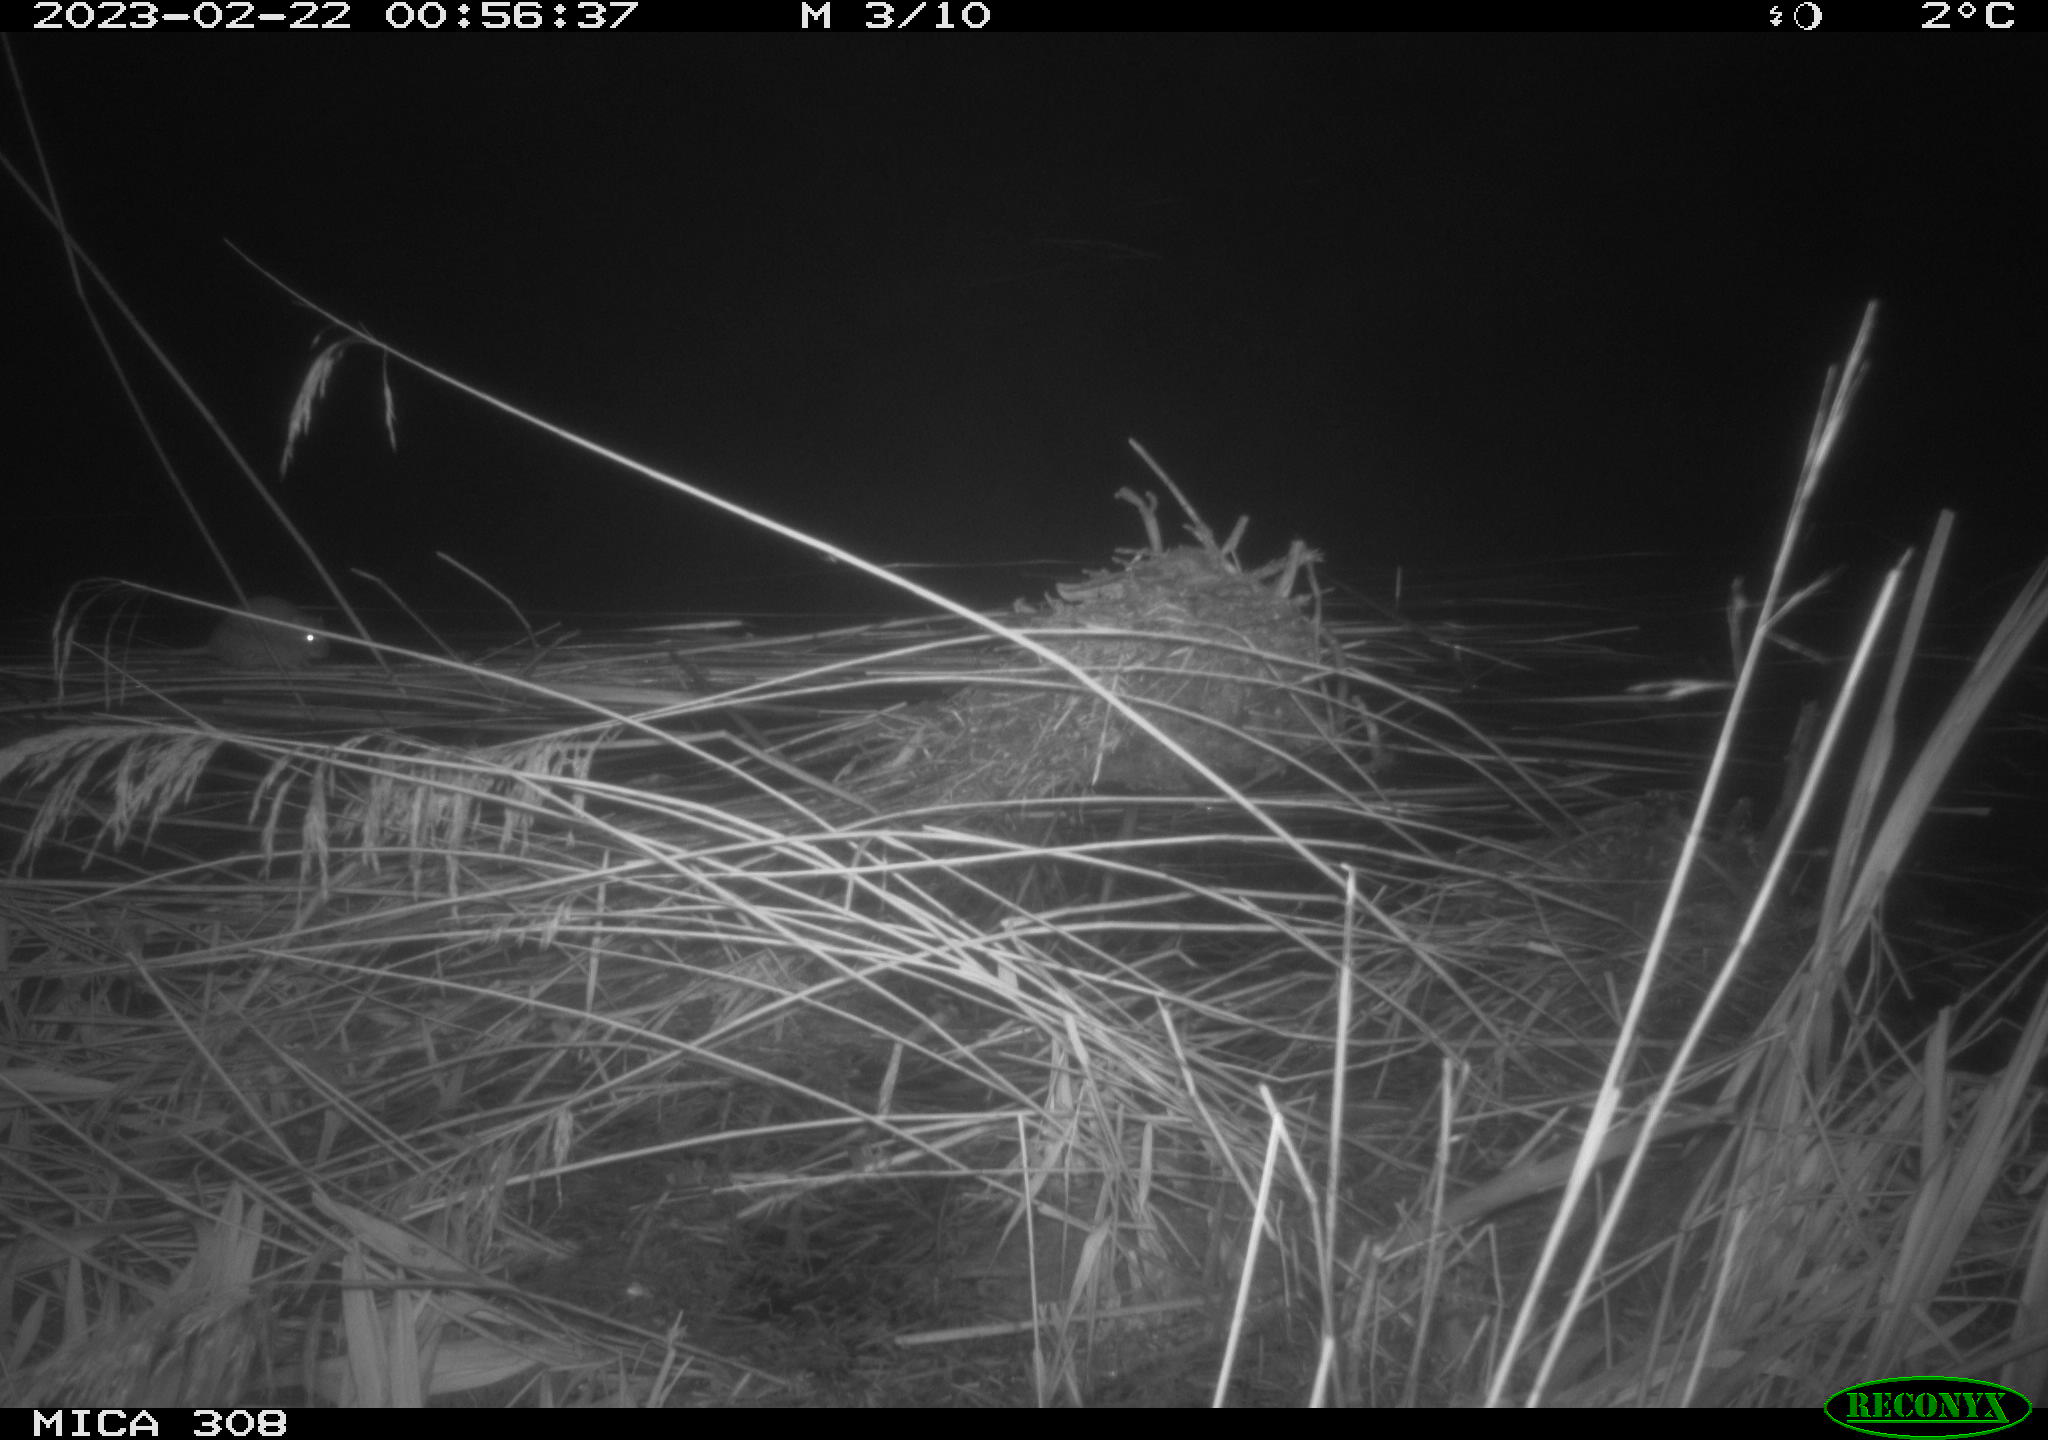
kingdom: Animalia
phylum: Chordata
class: Mammalia
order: Rodentia
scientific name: Rodentia
